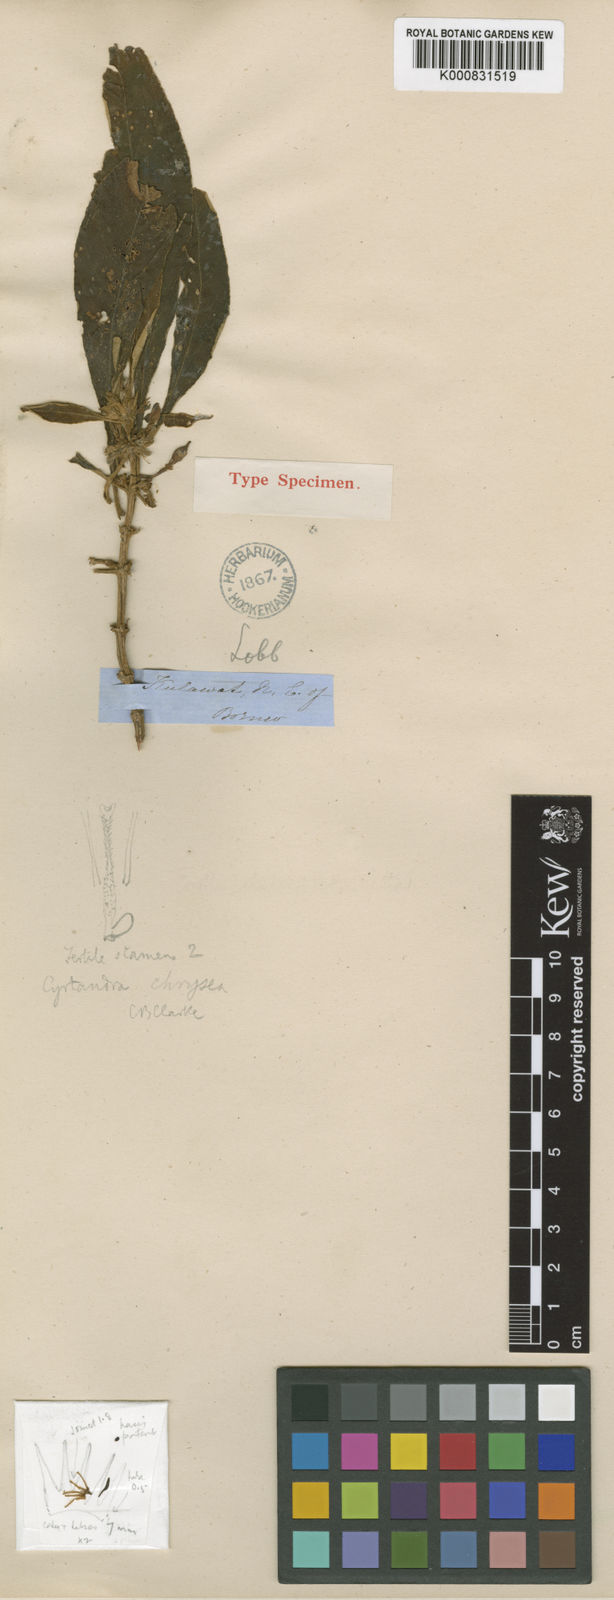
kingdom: Plantae
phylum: Tracheophyta
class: Magnoliopsida
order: Lamiales
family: Gesneriaceae
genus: Cyrtandra
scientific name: Cyrtandra chrysea
